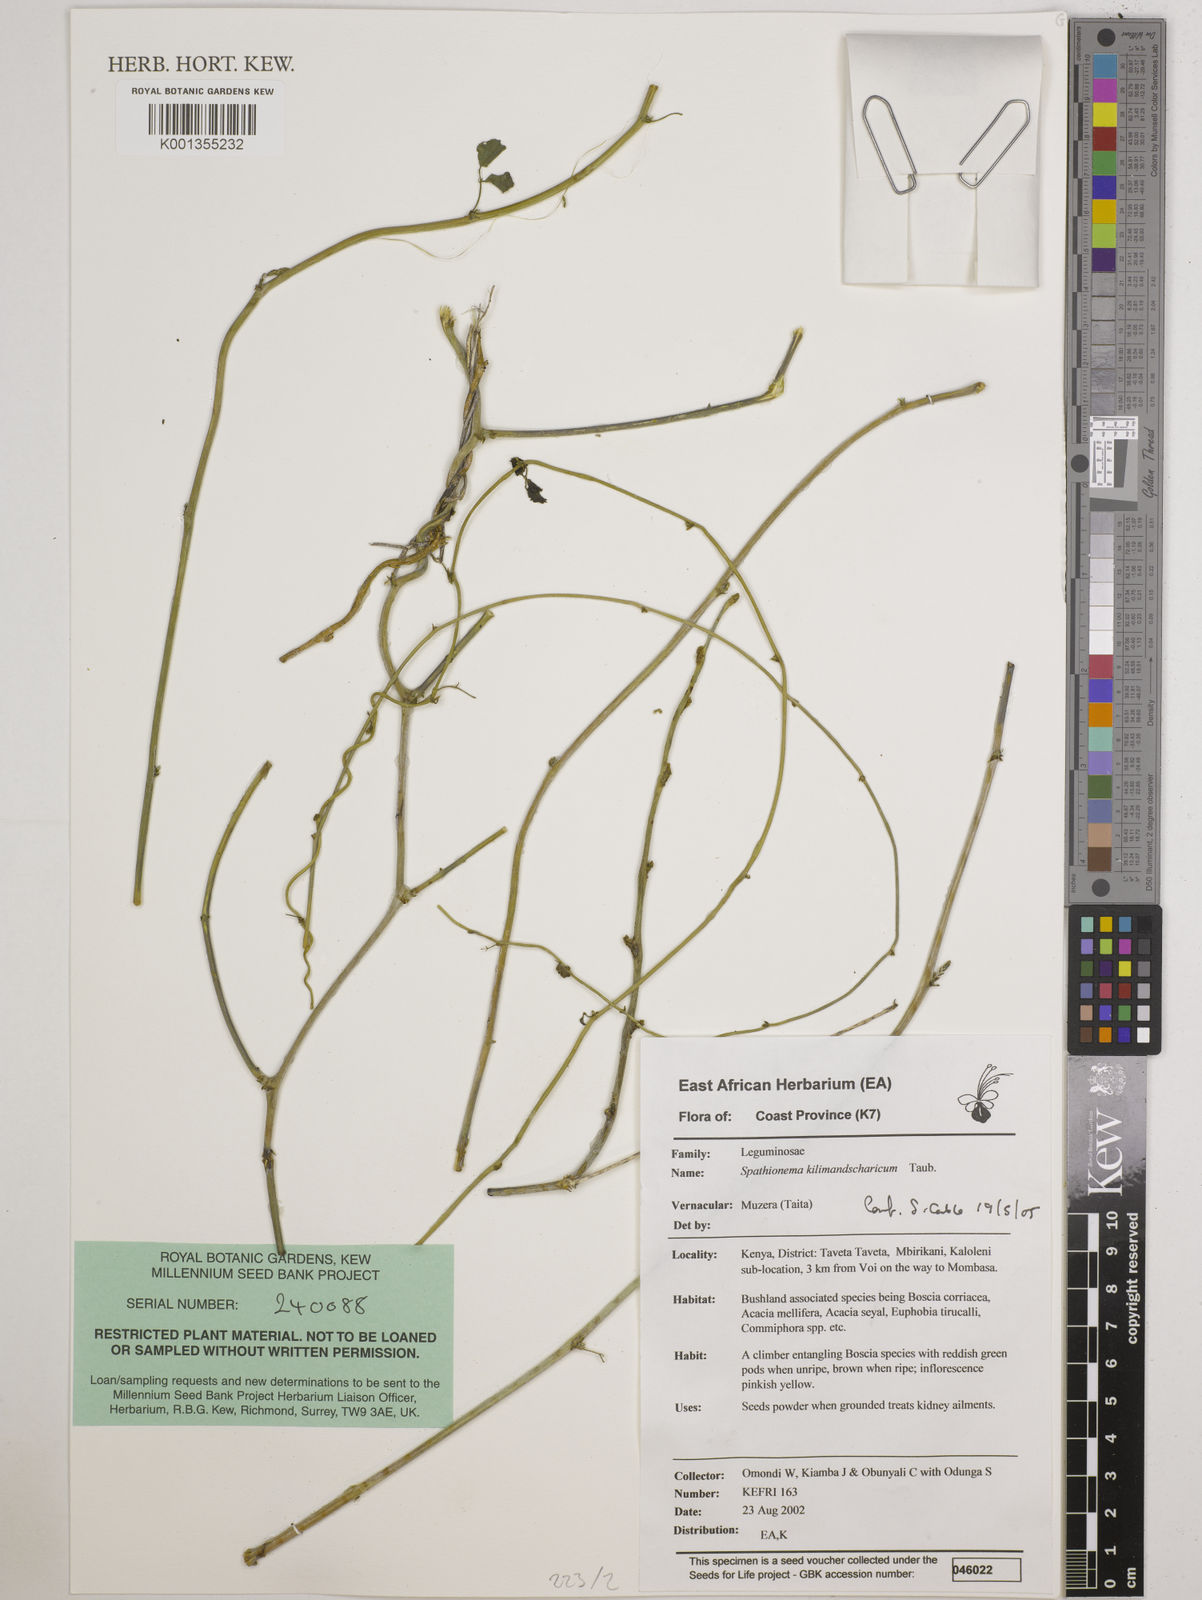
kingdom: Plantae
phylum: Tracheophyta
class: Magnoliopsida
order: Fabales
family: Fabaceae
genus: Spathionema
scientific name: Spathionema kilimandscharicum
